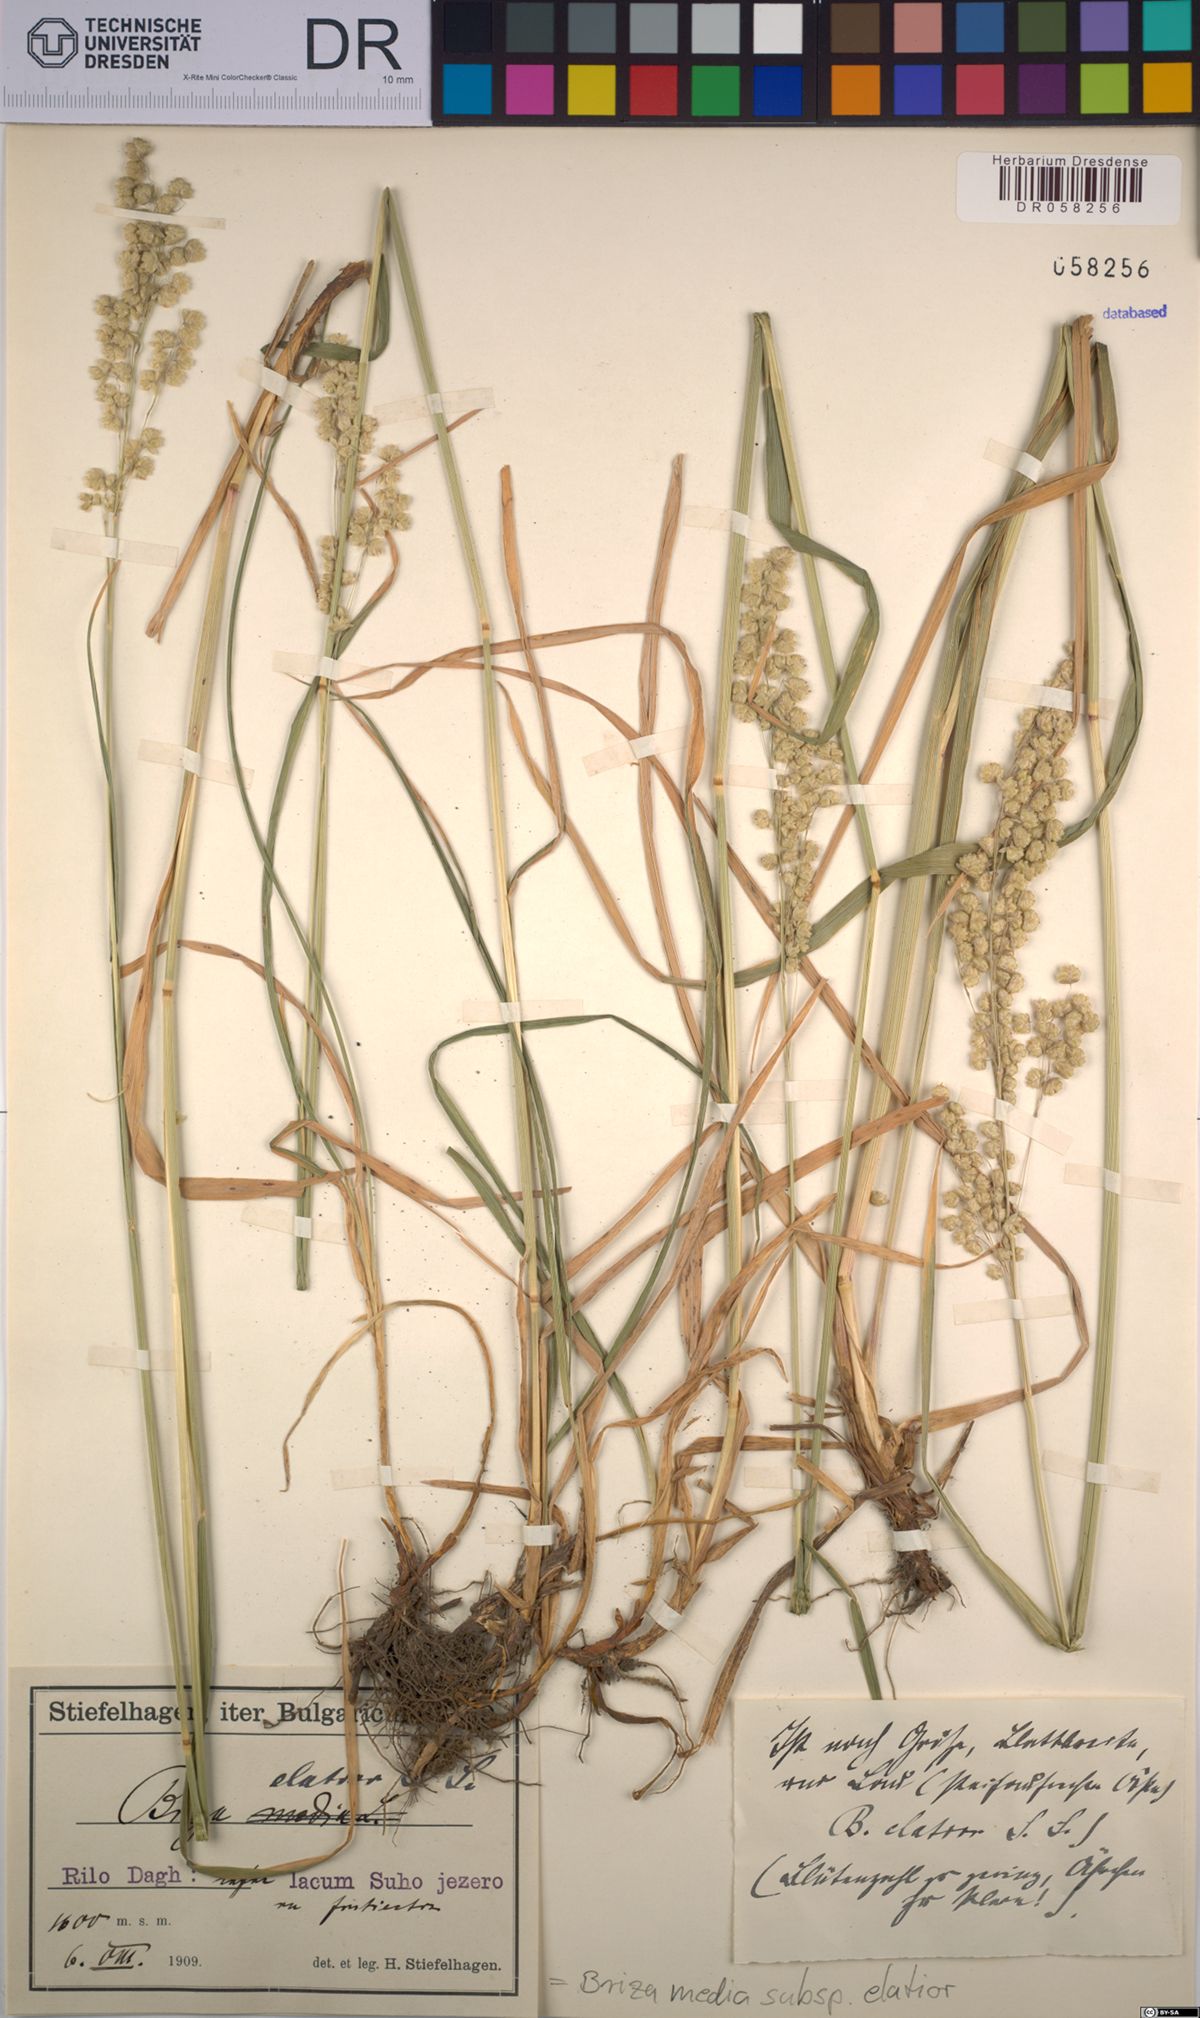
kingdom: Plantae
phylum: Tracheophyta
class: Liliopsida
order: Poales
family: Poaceae
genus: Briza
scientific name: Briza media
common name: Quaking grass
